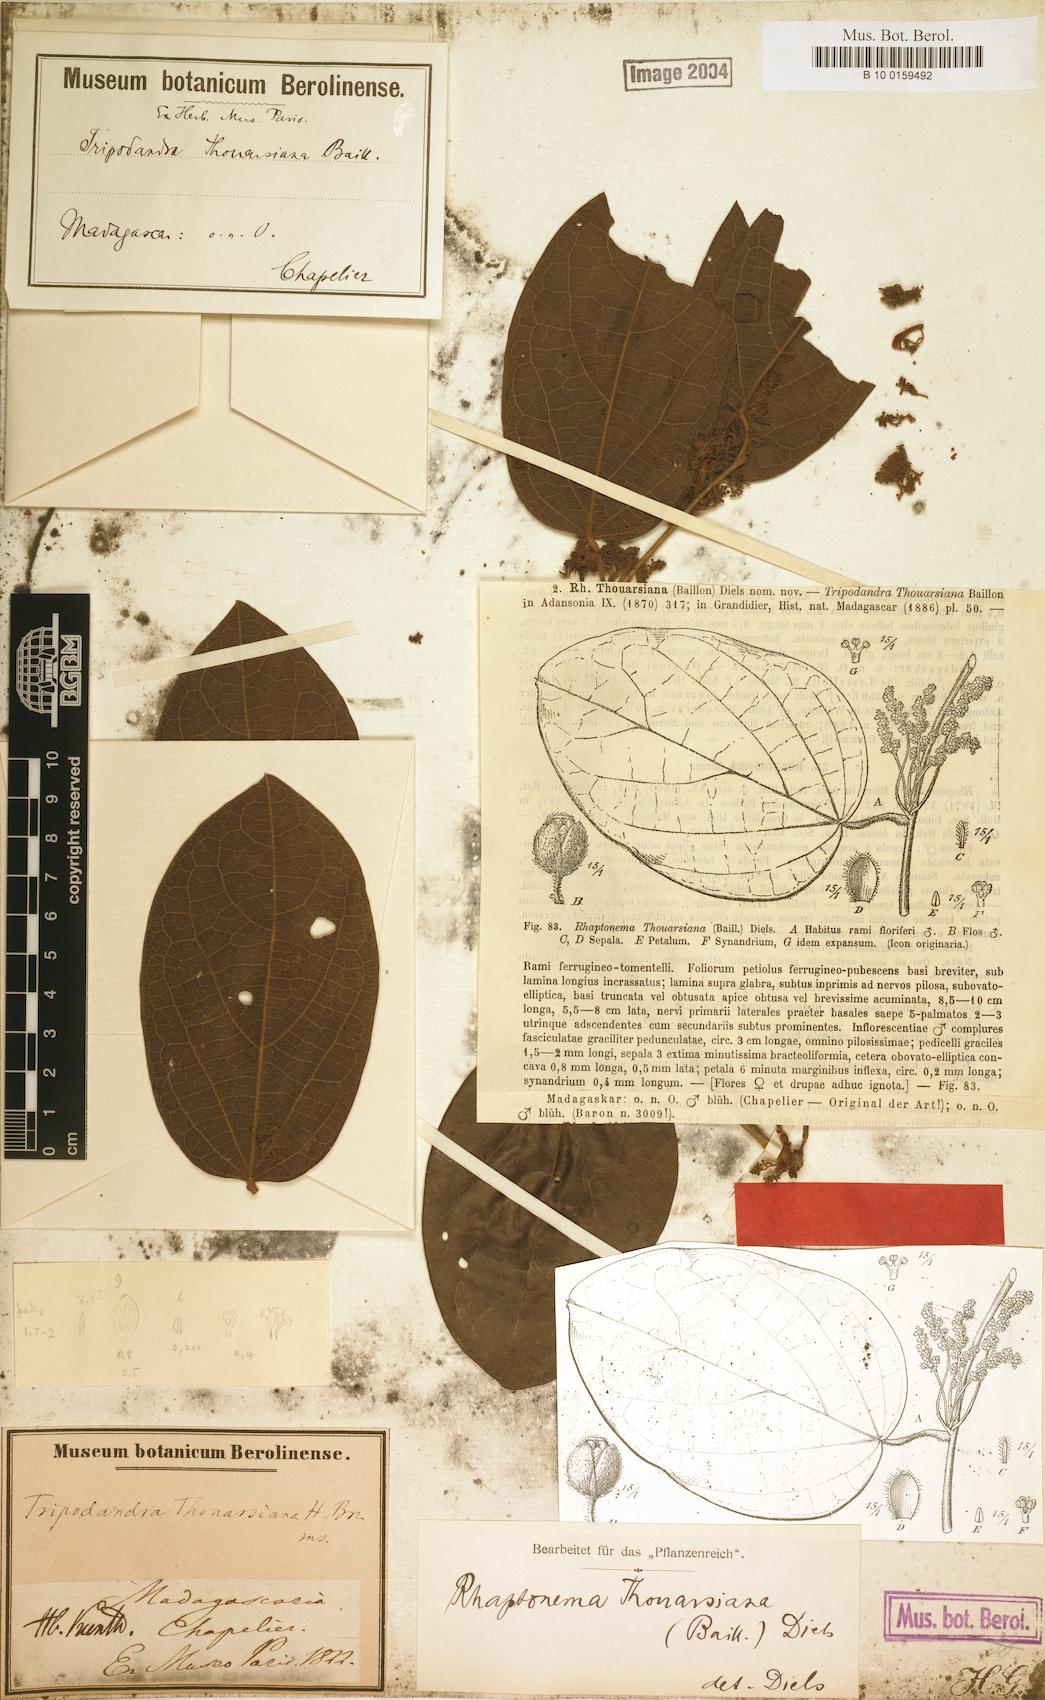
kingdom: Plantae
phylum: Tracheophyta
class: Magnoliopsida
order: Ranunculales
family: Menispermaceae
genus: Rhaptonema
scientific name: Rhaptonema thouarsiana
